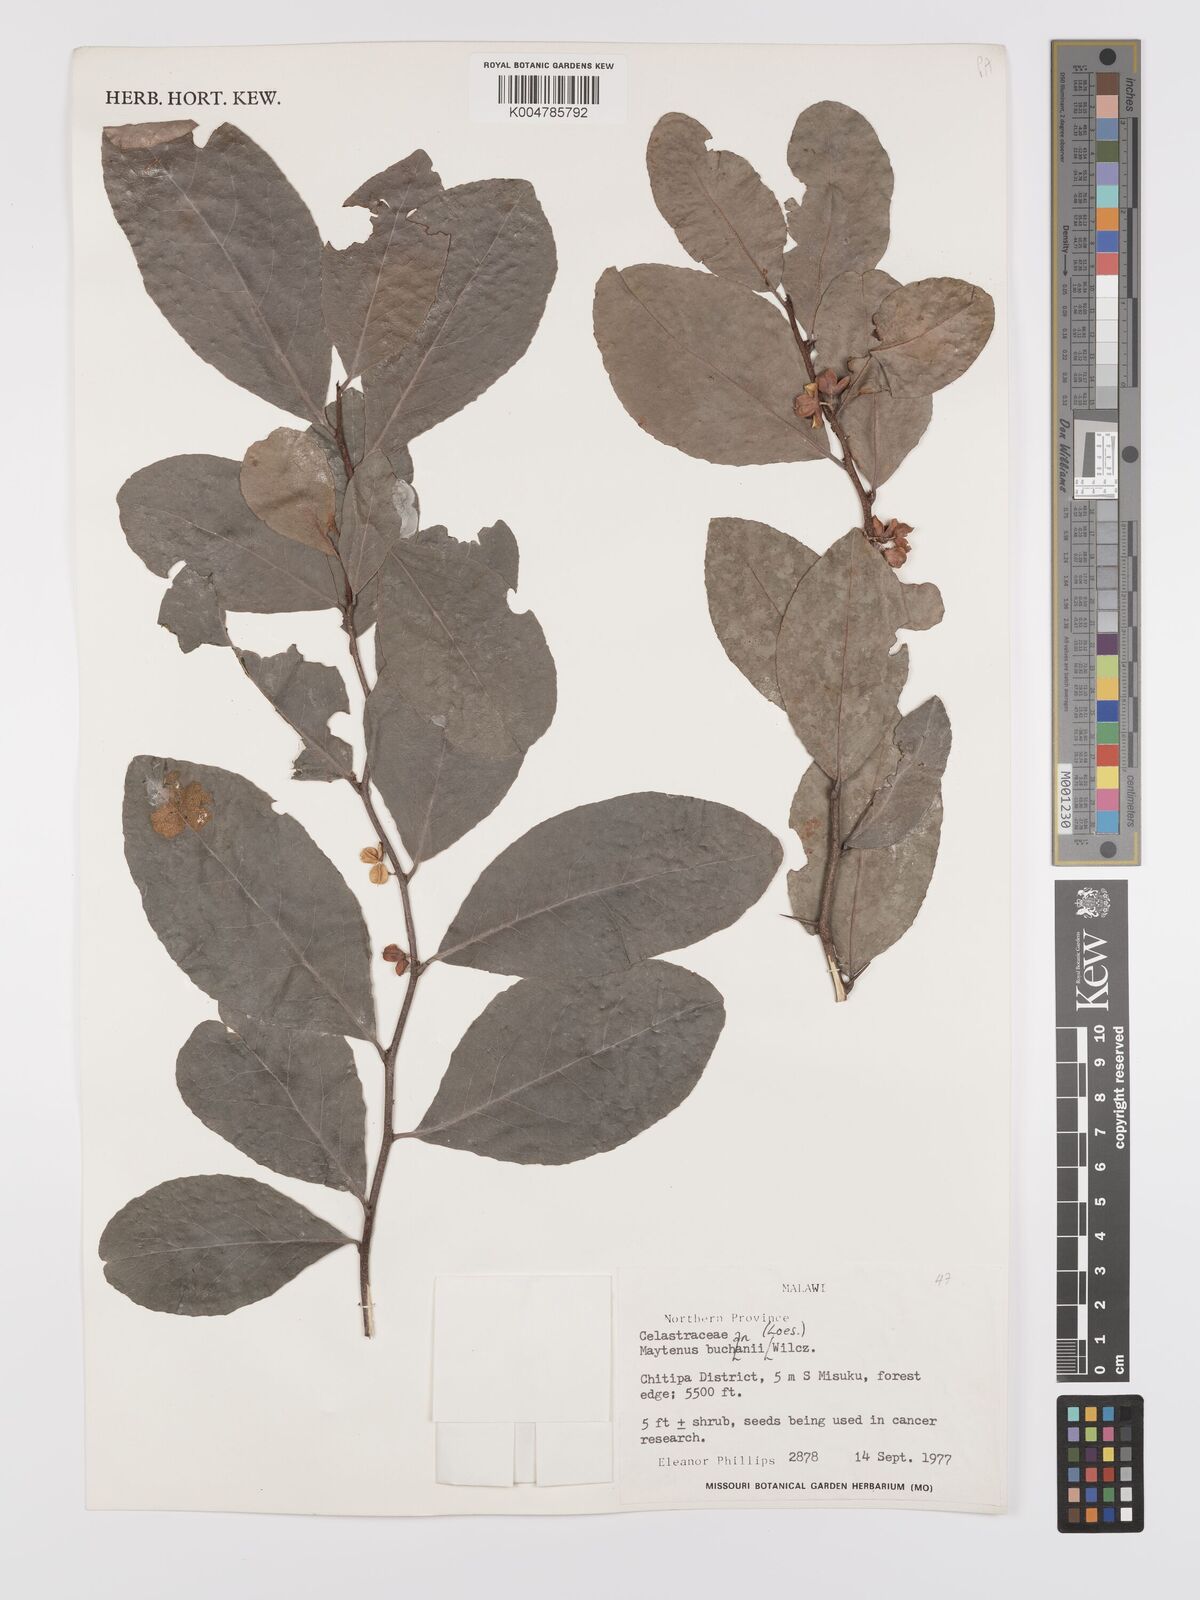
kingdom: Plantae
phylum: Tracheophyta
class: Magnoliopsida
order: Celastrales
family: Celastraceae
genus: Gymnosporia
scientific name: Gymnosporia buchananii
